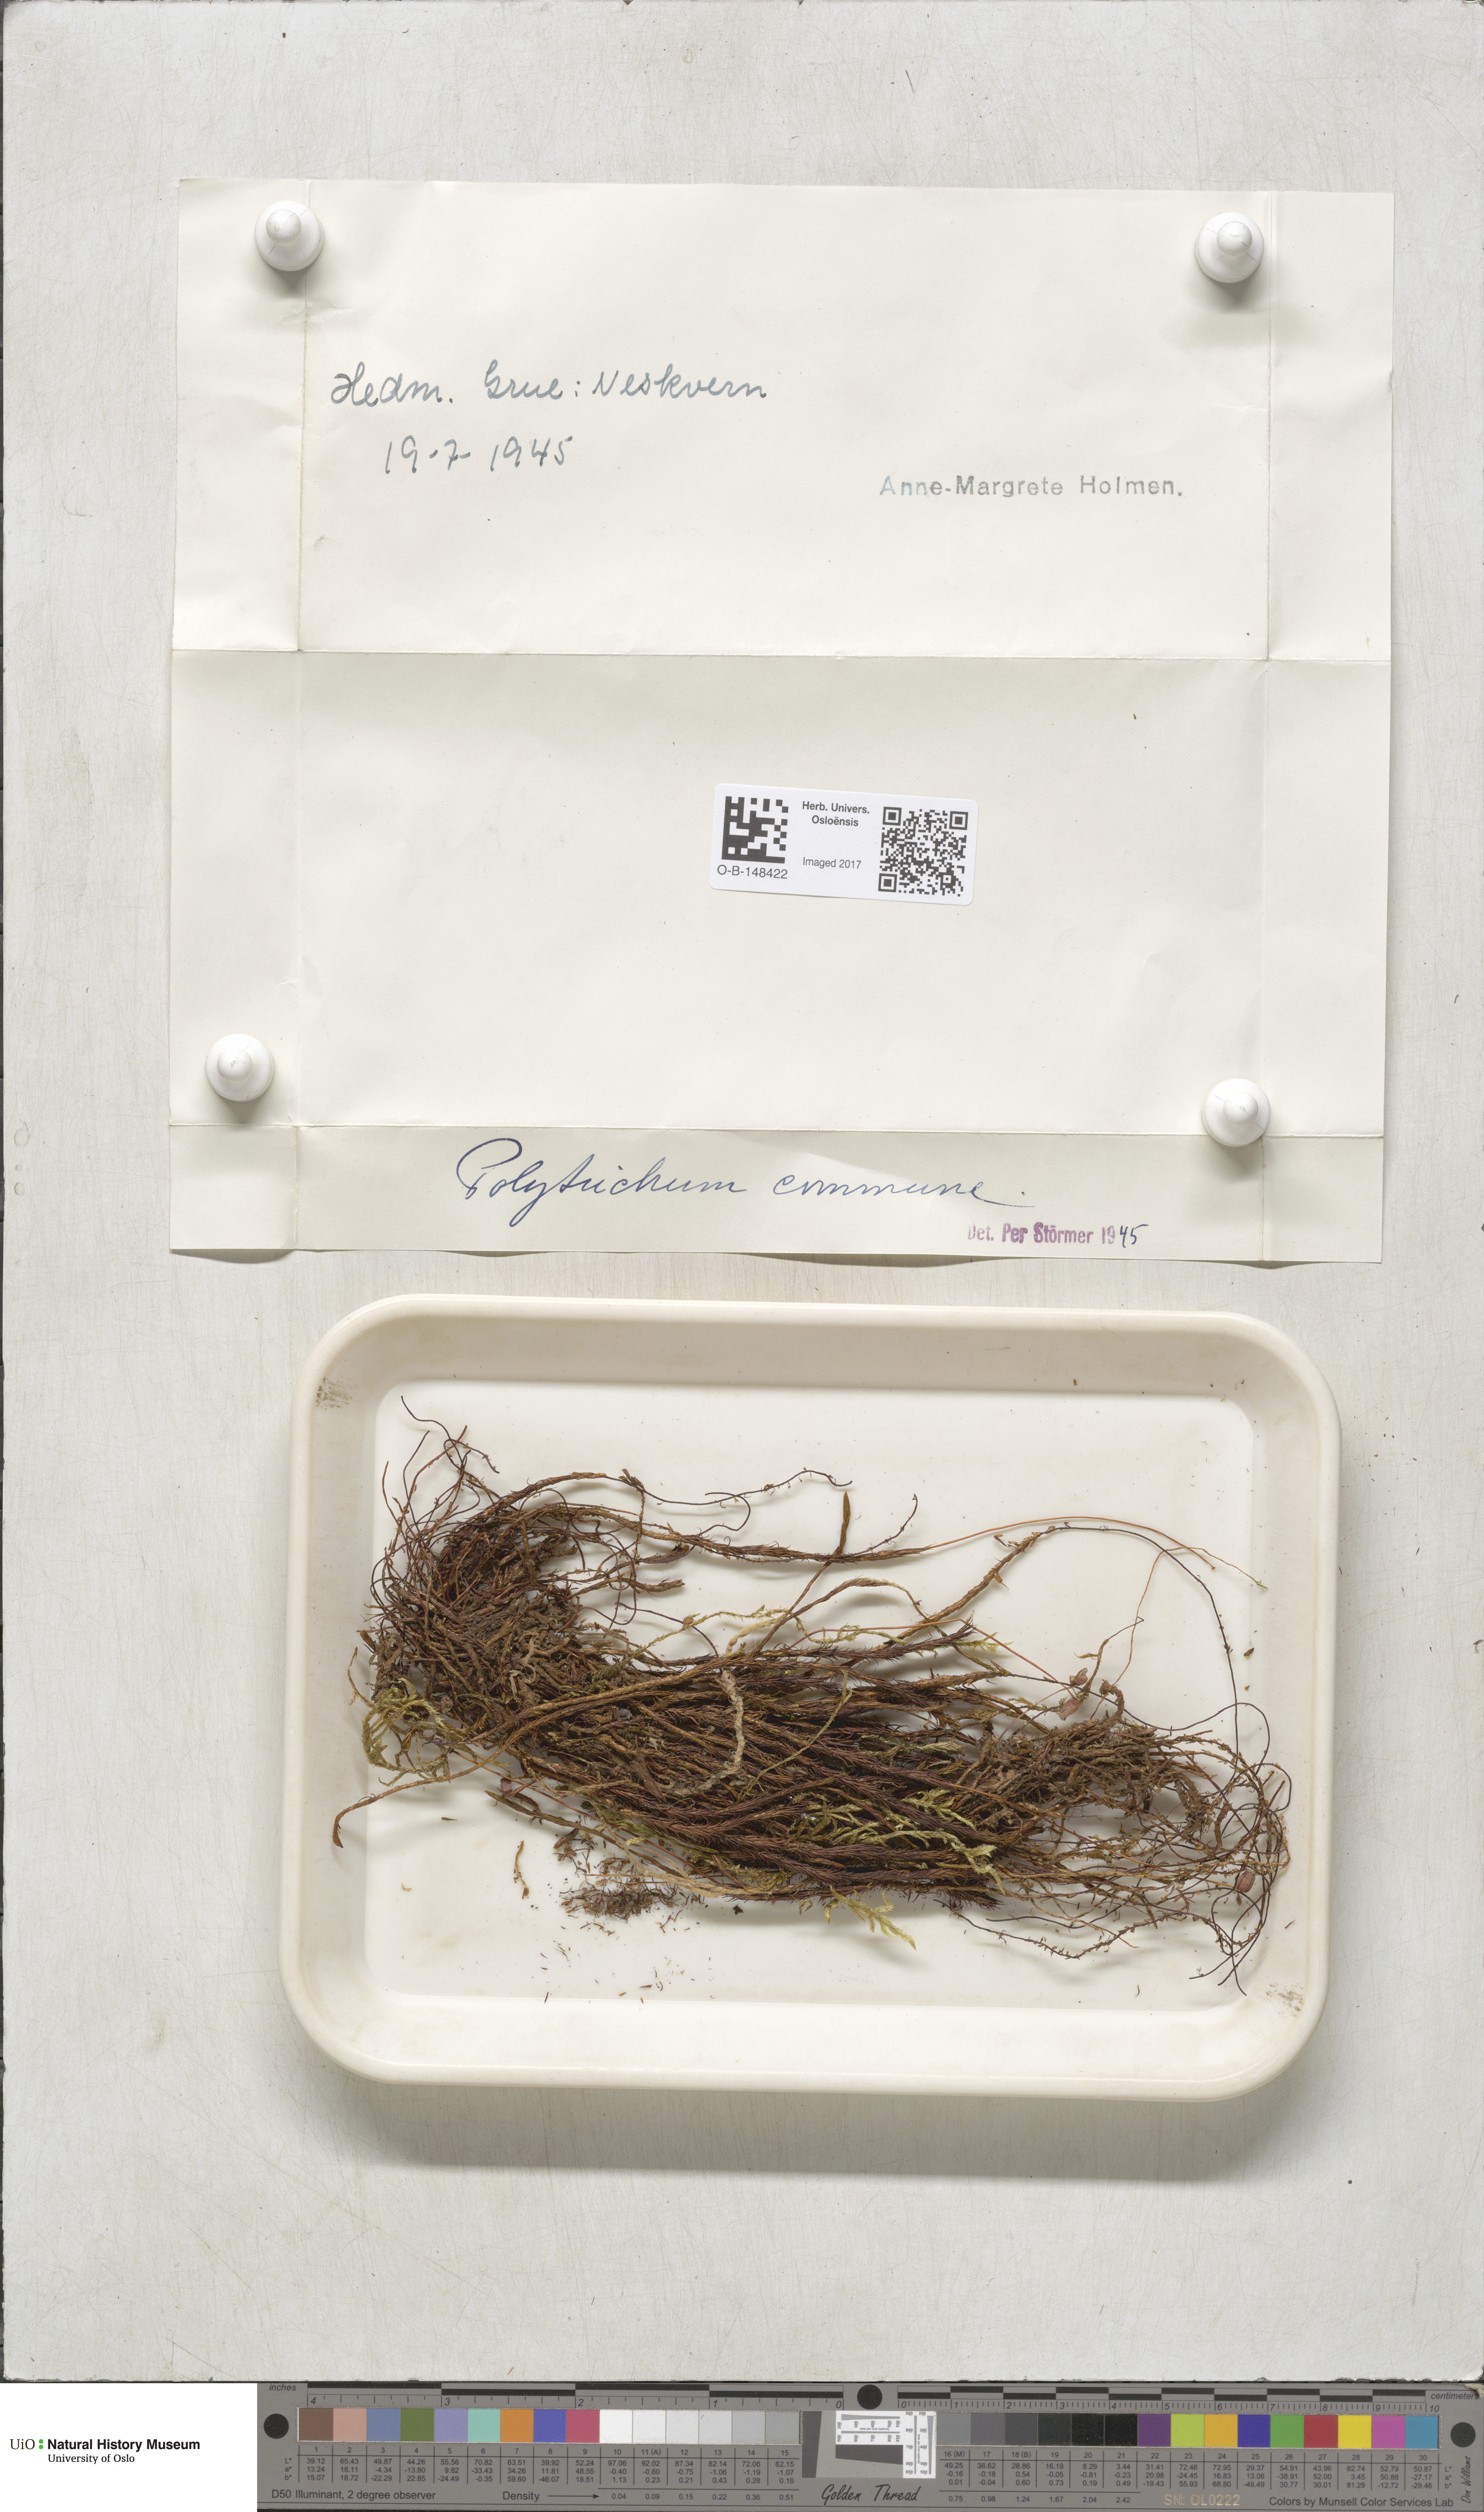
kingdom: Plantae
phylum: Bryophyta
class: Polytrichopsida
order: Polytrichales
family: Polytrichaceae
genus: Polytrichum
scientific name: Polytrichum commune
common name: Common haircap
